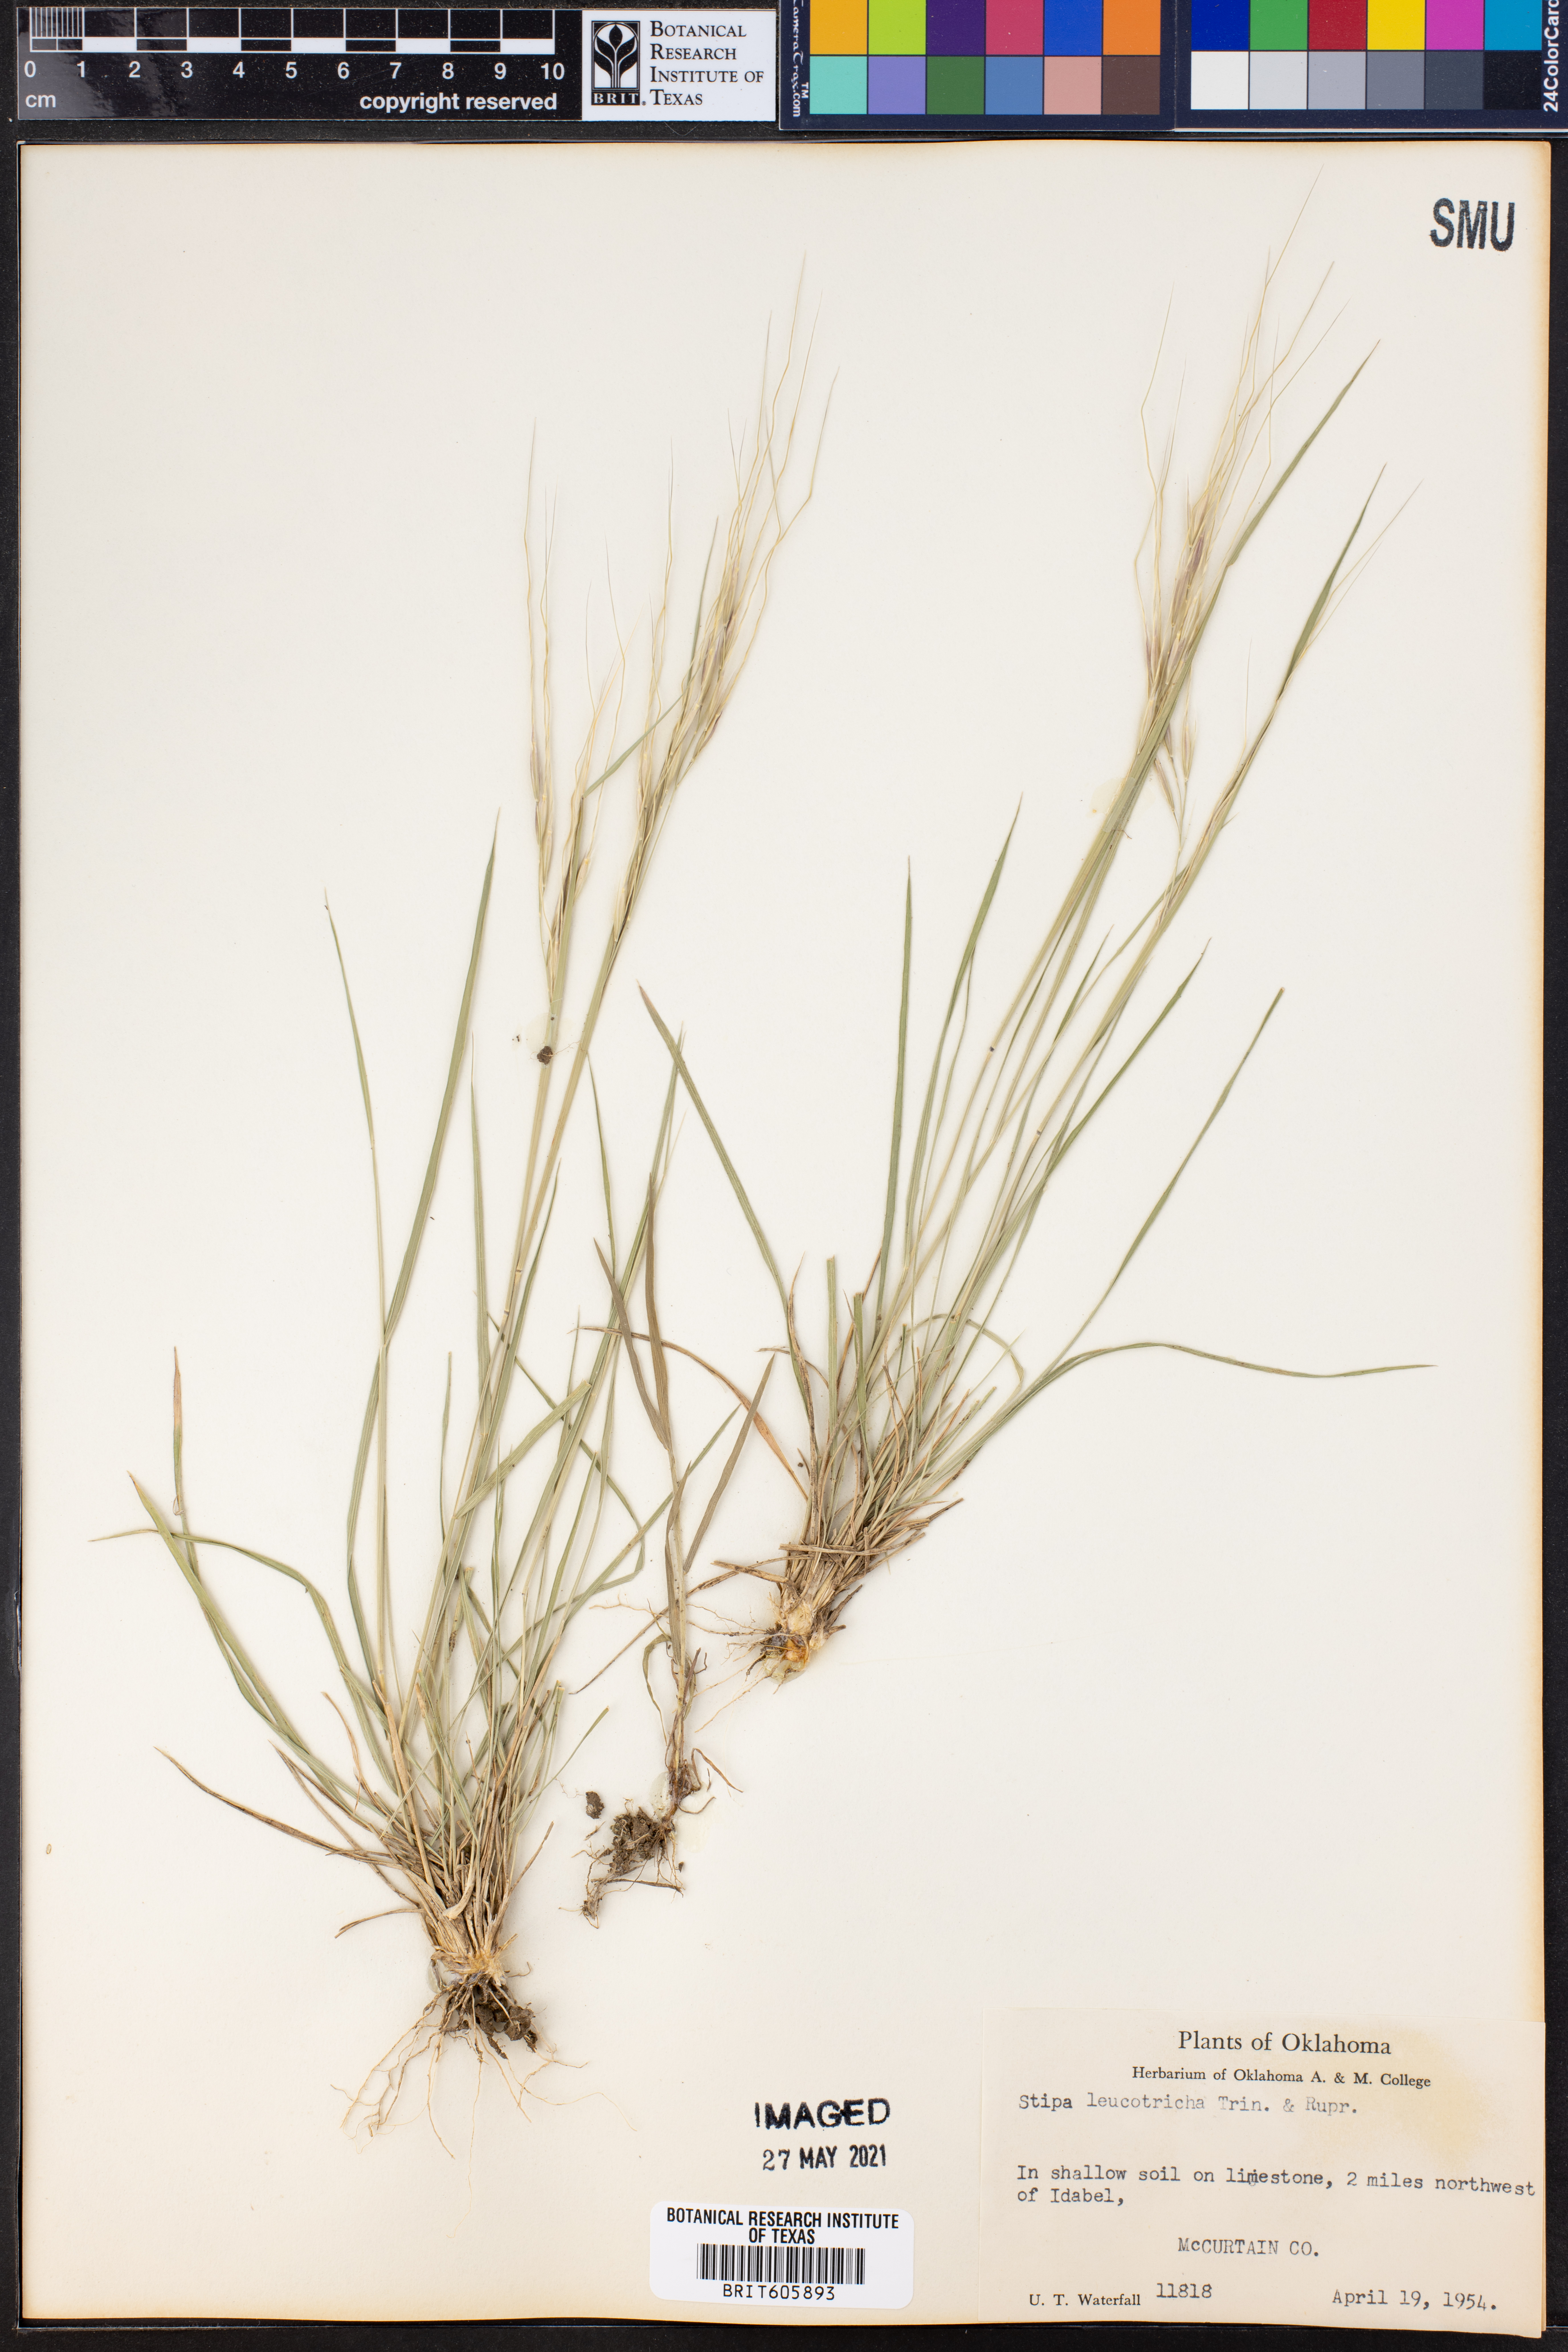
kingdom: Plantae
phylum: Tracheophyta
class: Liliopsida
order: Poales
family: Poaceae
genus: Nassella
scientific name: Nassella leucotricha
